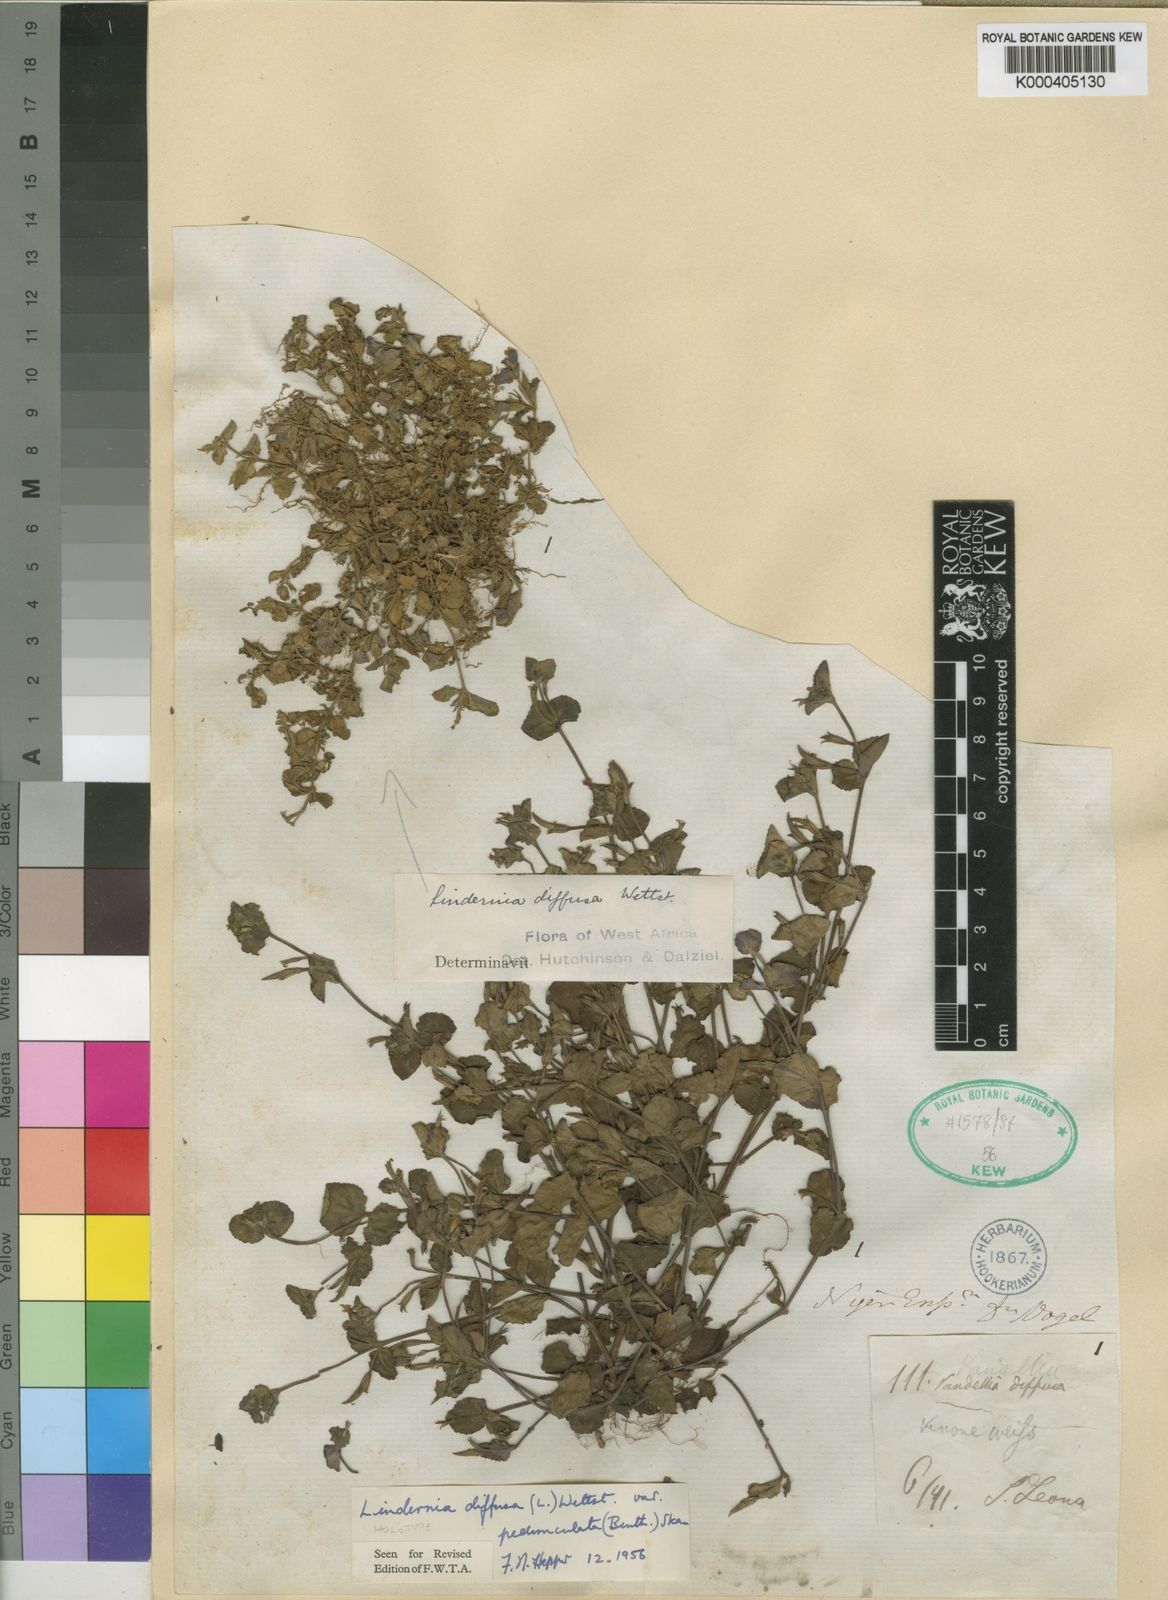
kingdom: Plantae
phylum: Tracheophyta
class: Magnoliopsida
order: Lamiales
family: Linderniaceae
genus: Vandellia
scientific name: Vandellia diffusa
